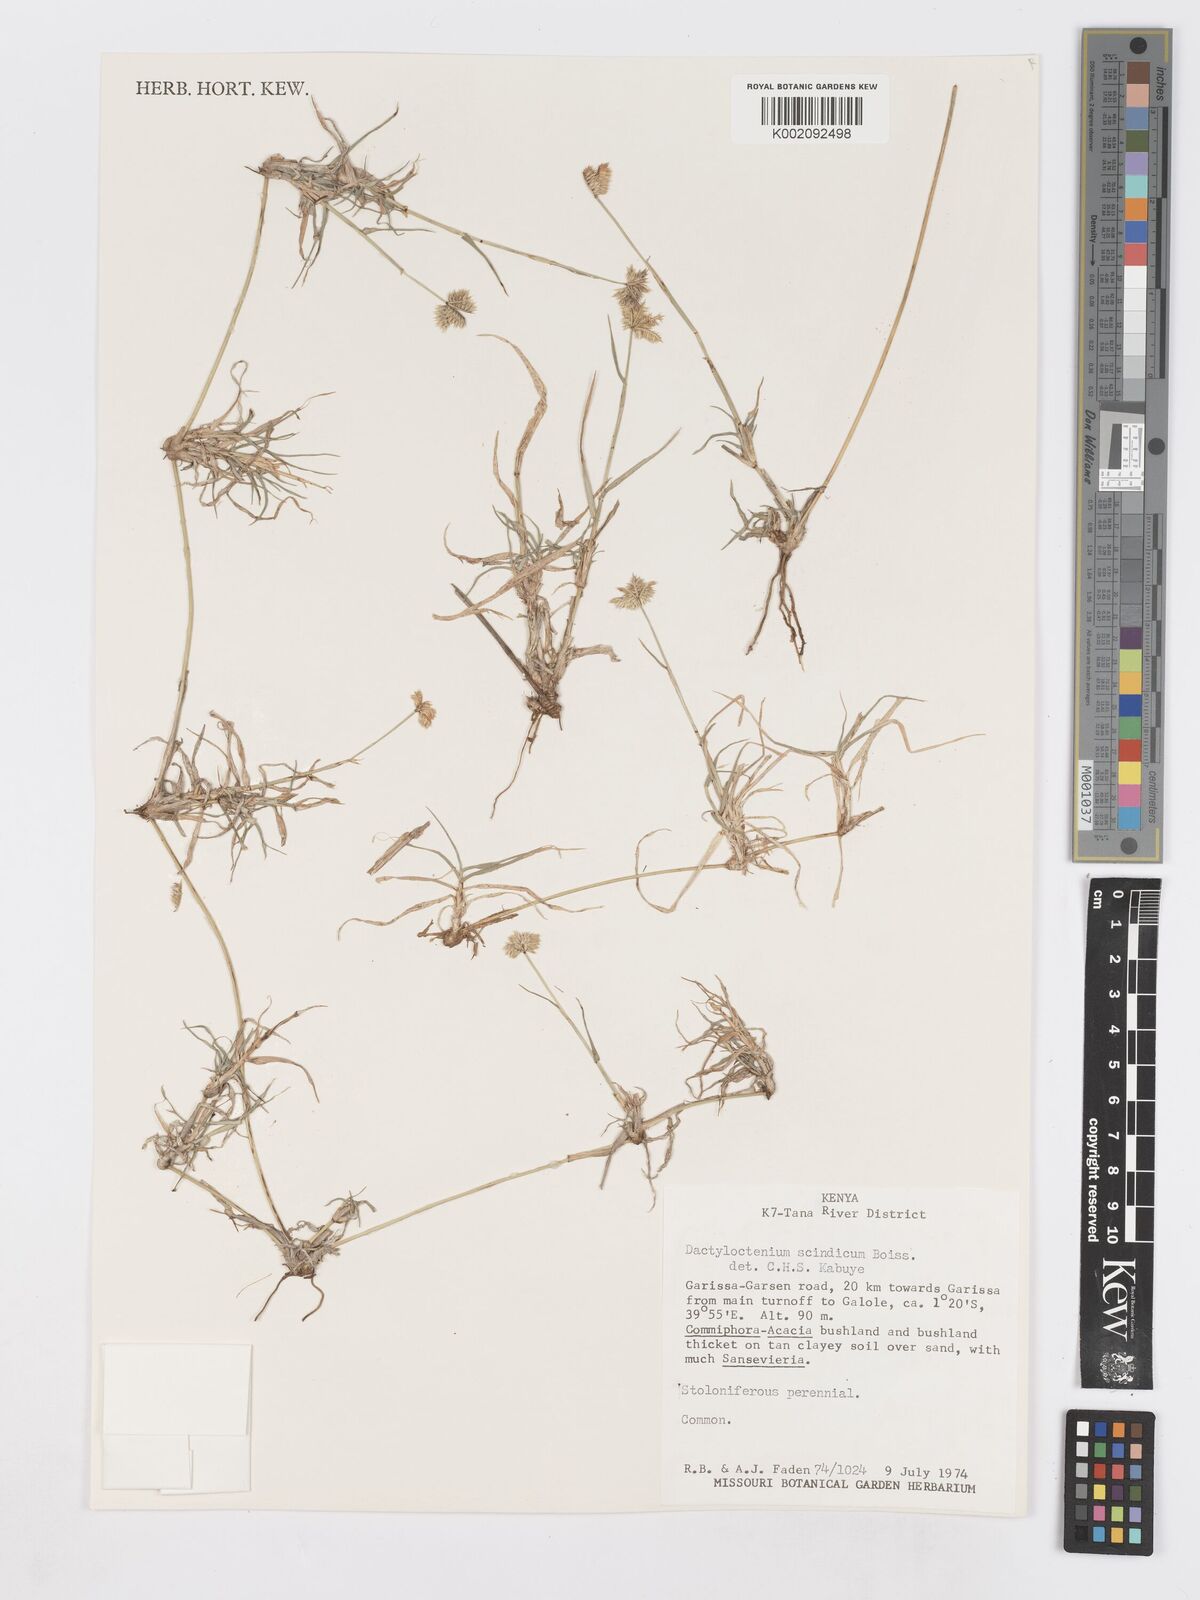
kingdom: Plantae
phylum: Tracheophyta
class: Liliopsida
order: Poales
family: Poaceae
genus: Dactyloctenium
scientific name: Dactyloctenium scindicum
